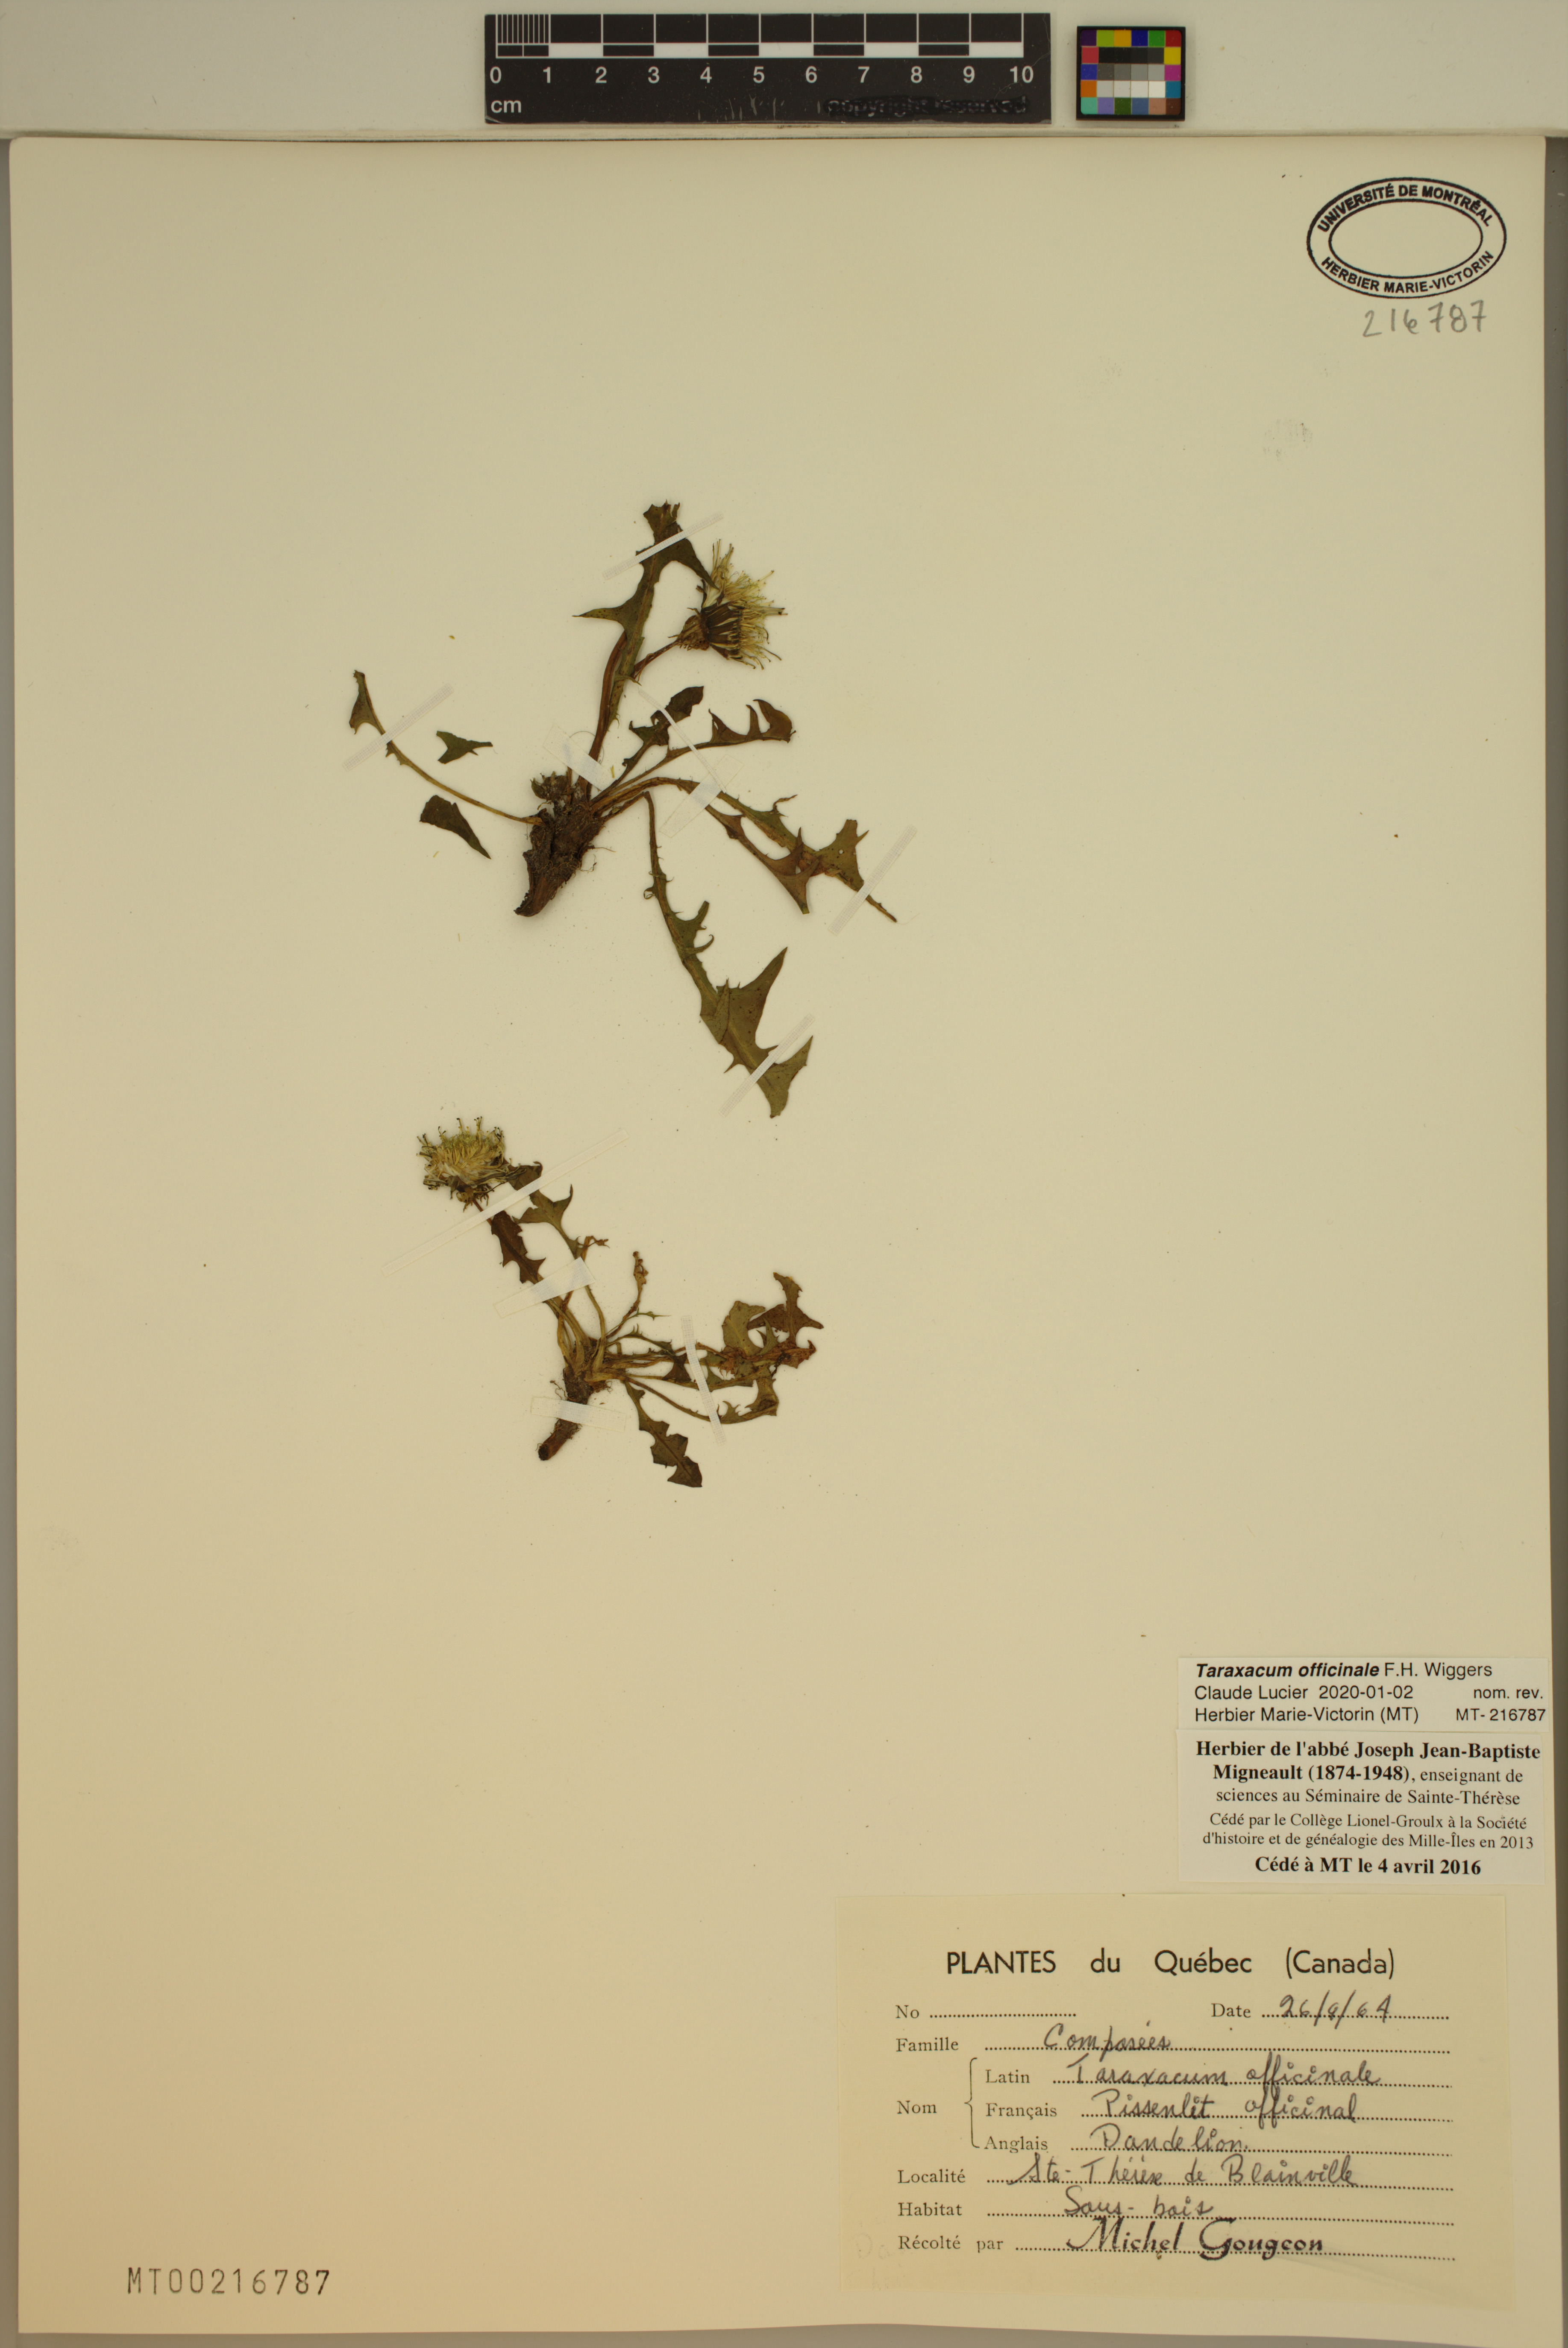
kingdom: Plantae
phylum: Tracheophyta
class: Magnoliopsida
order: Asterales
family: Asteraceae
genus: Taraxacum
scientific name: Taraxacum officinale
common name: Common dandelion
